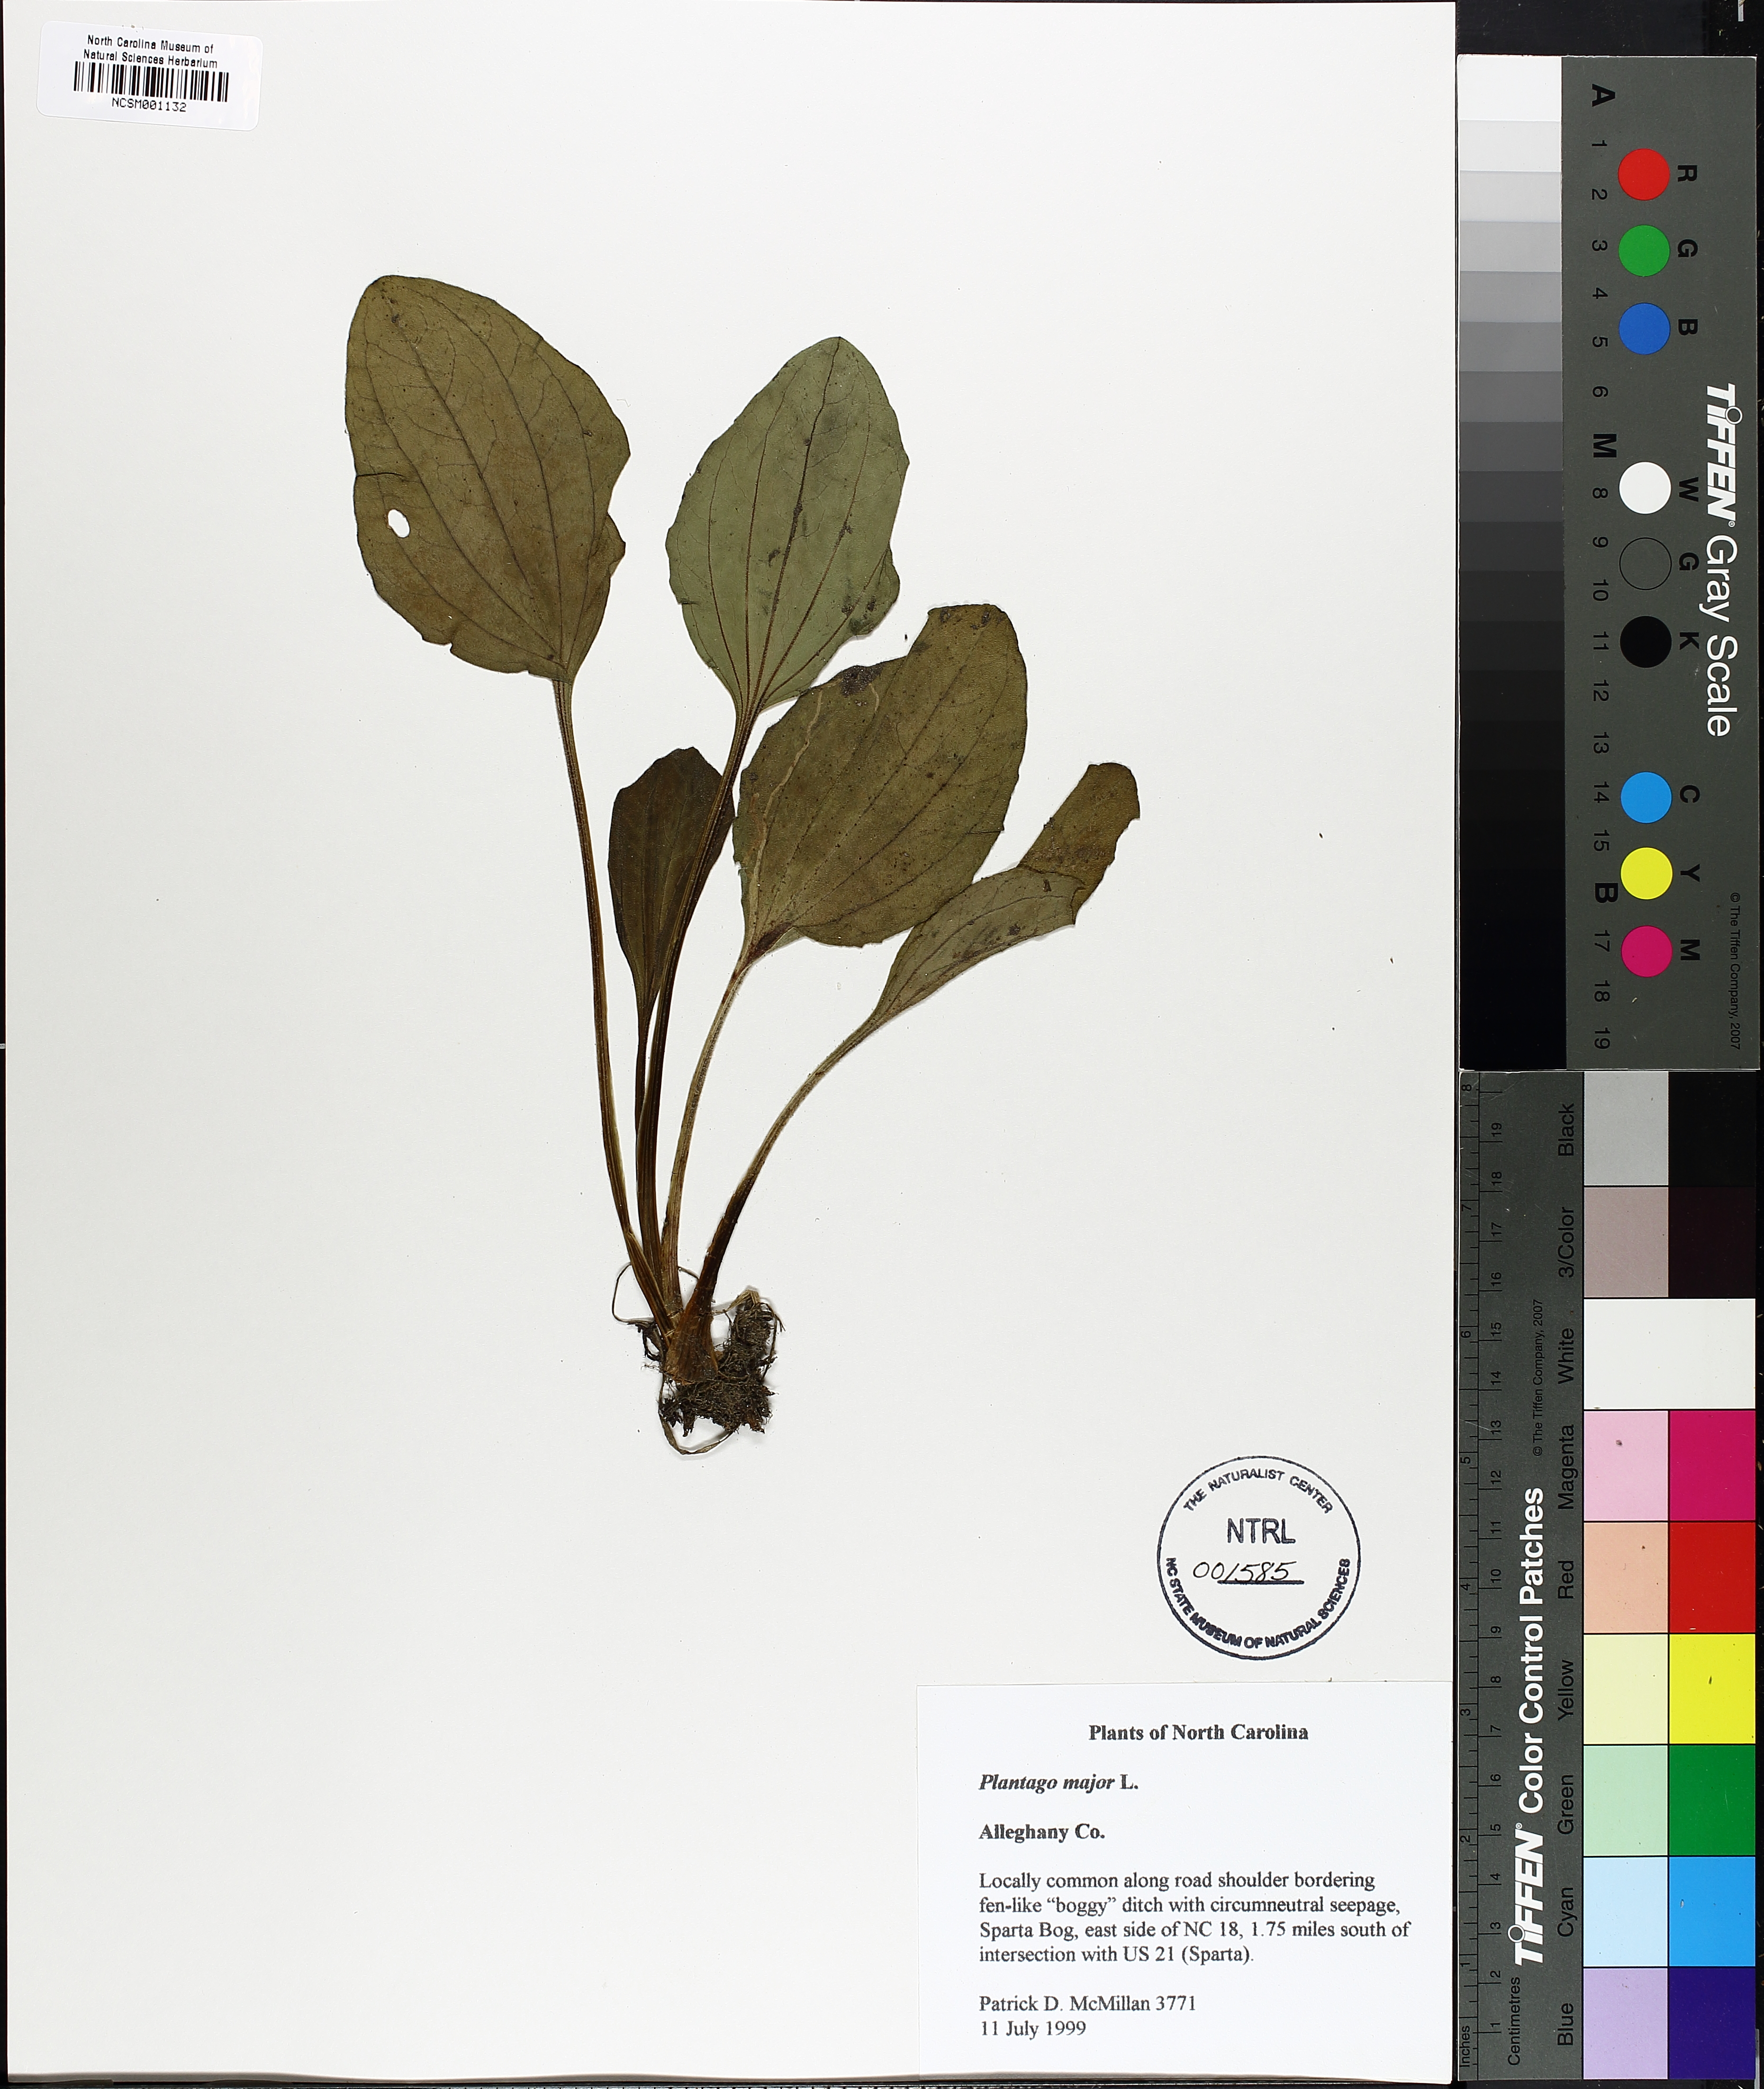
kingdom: Plantae
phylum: Tracheophyta
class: Magnoliopsida
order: Lamiales
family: Plantaginaceae
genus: Plantago
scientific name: Plantago major
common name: Common plantain
